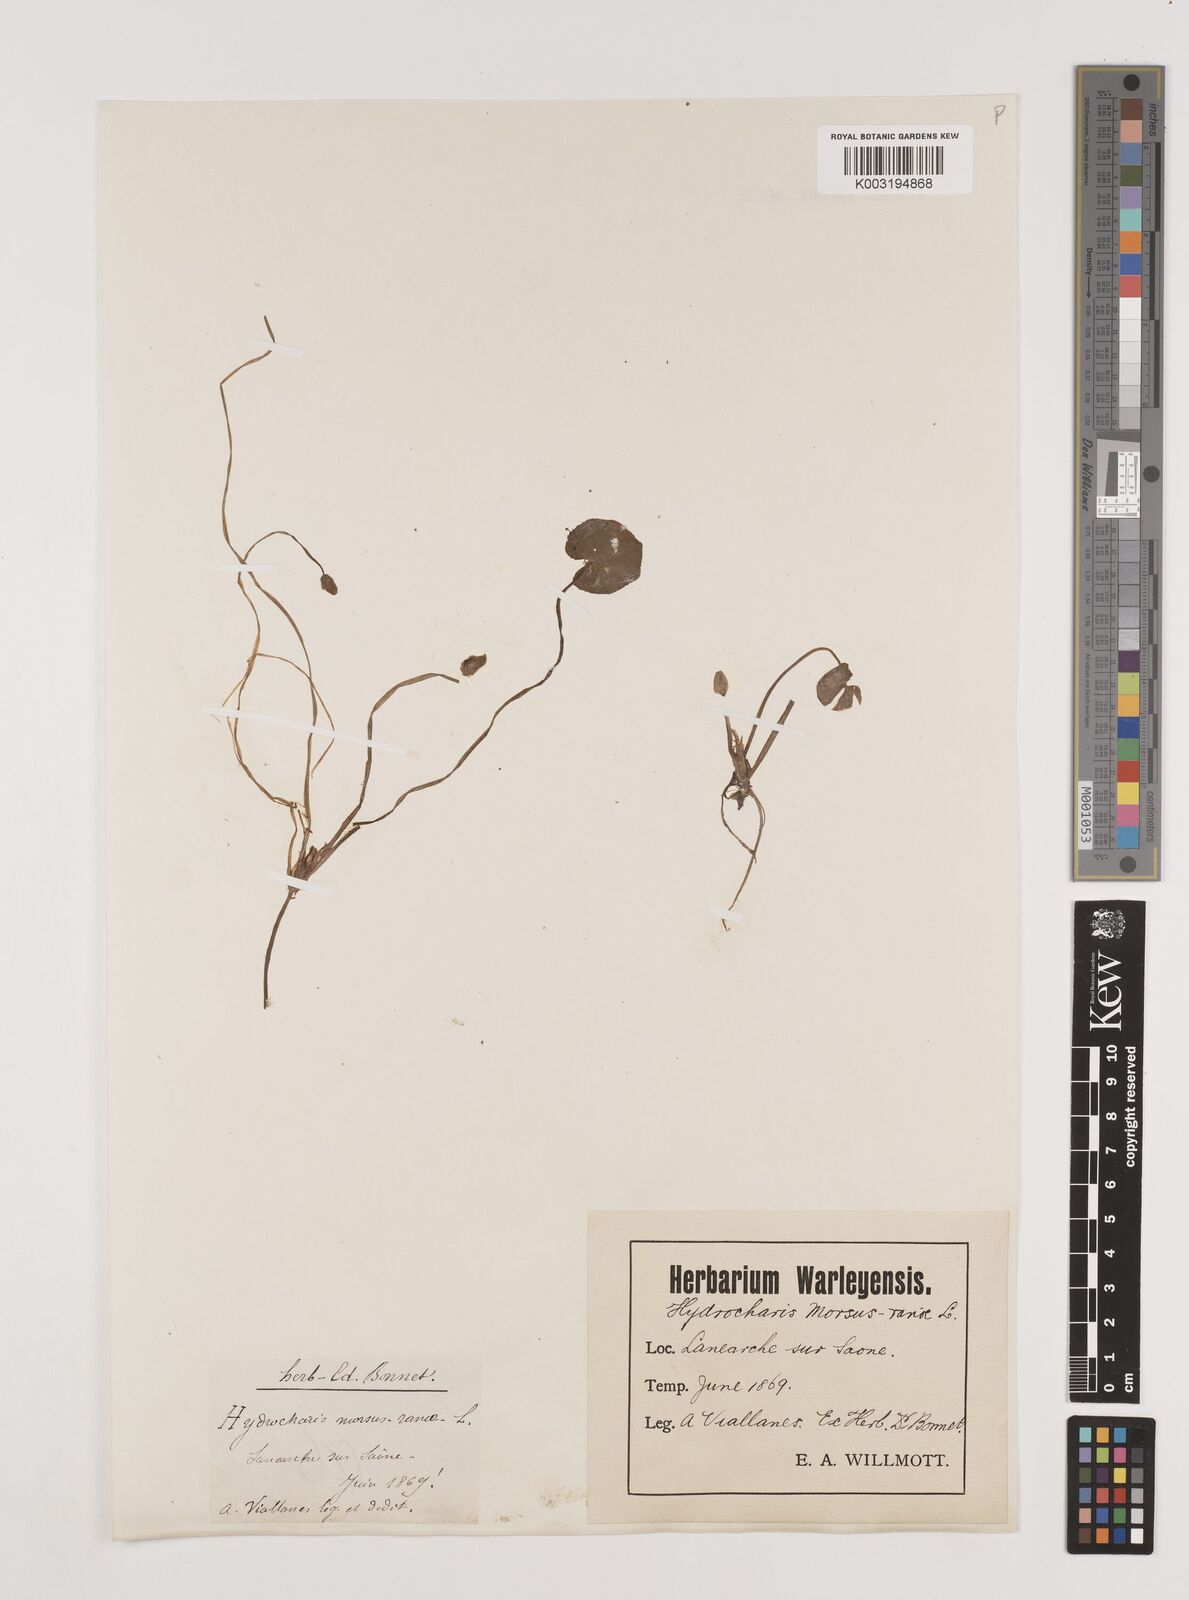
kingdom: Plantae
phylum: Tracheophyta
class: Liliopsida
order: Alismatales
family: Hydrocharitaceae
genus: Hydrocharis
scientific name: Hydrocharis morsus-ranae
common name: Frogbit
